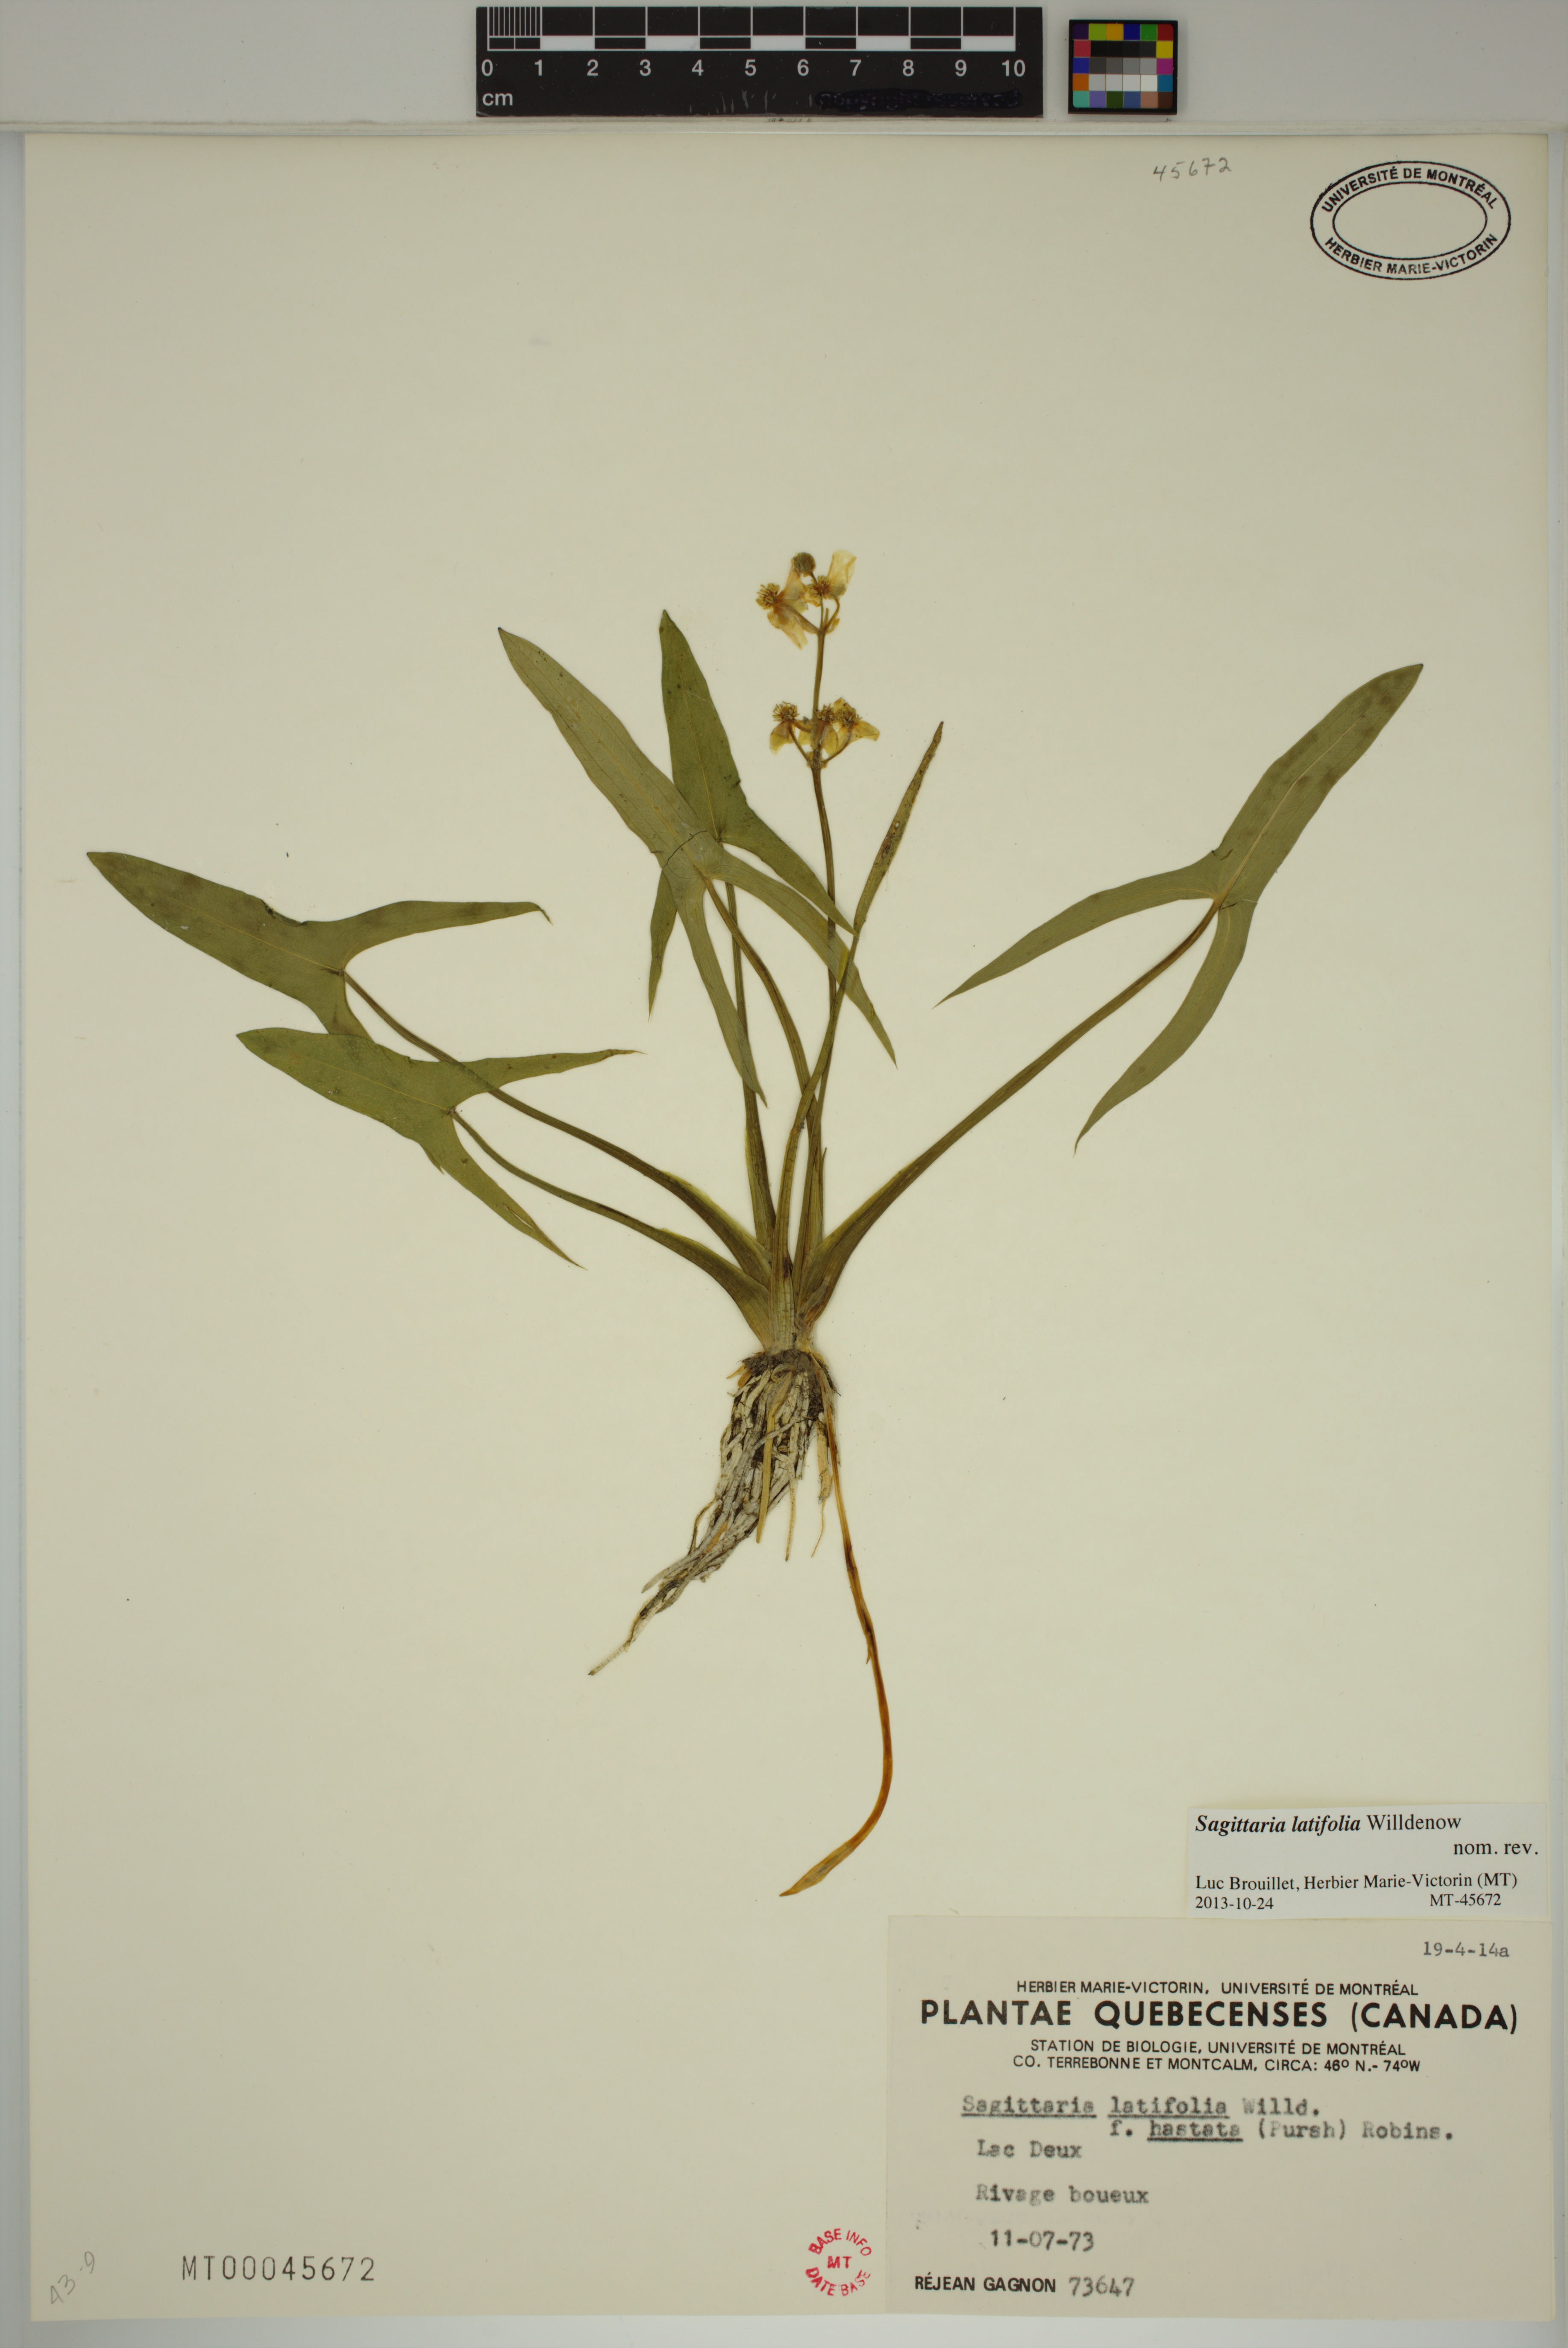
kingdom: Plantae
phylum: Tracheophyta
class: Liliopsida
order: Alismatales
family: Alismataceae
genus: Sagittaria
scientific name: Sagittaria latifolia
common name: Duck-potato
